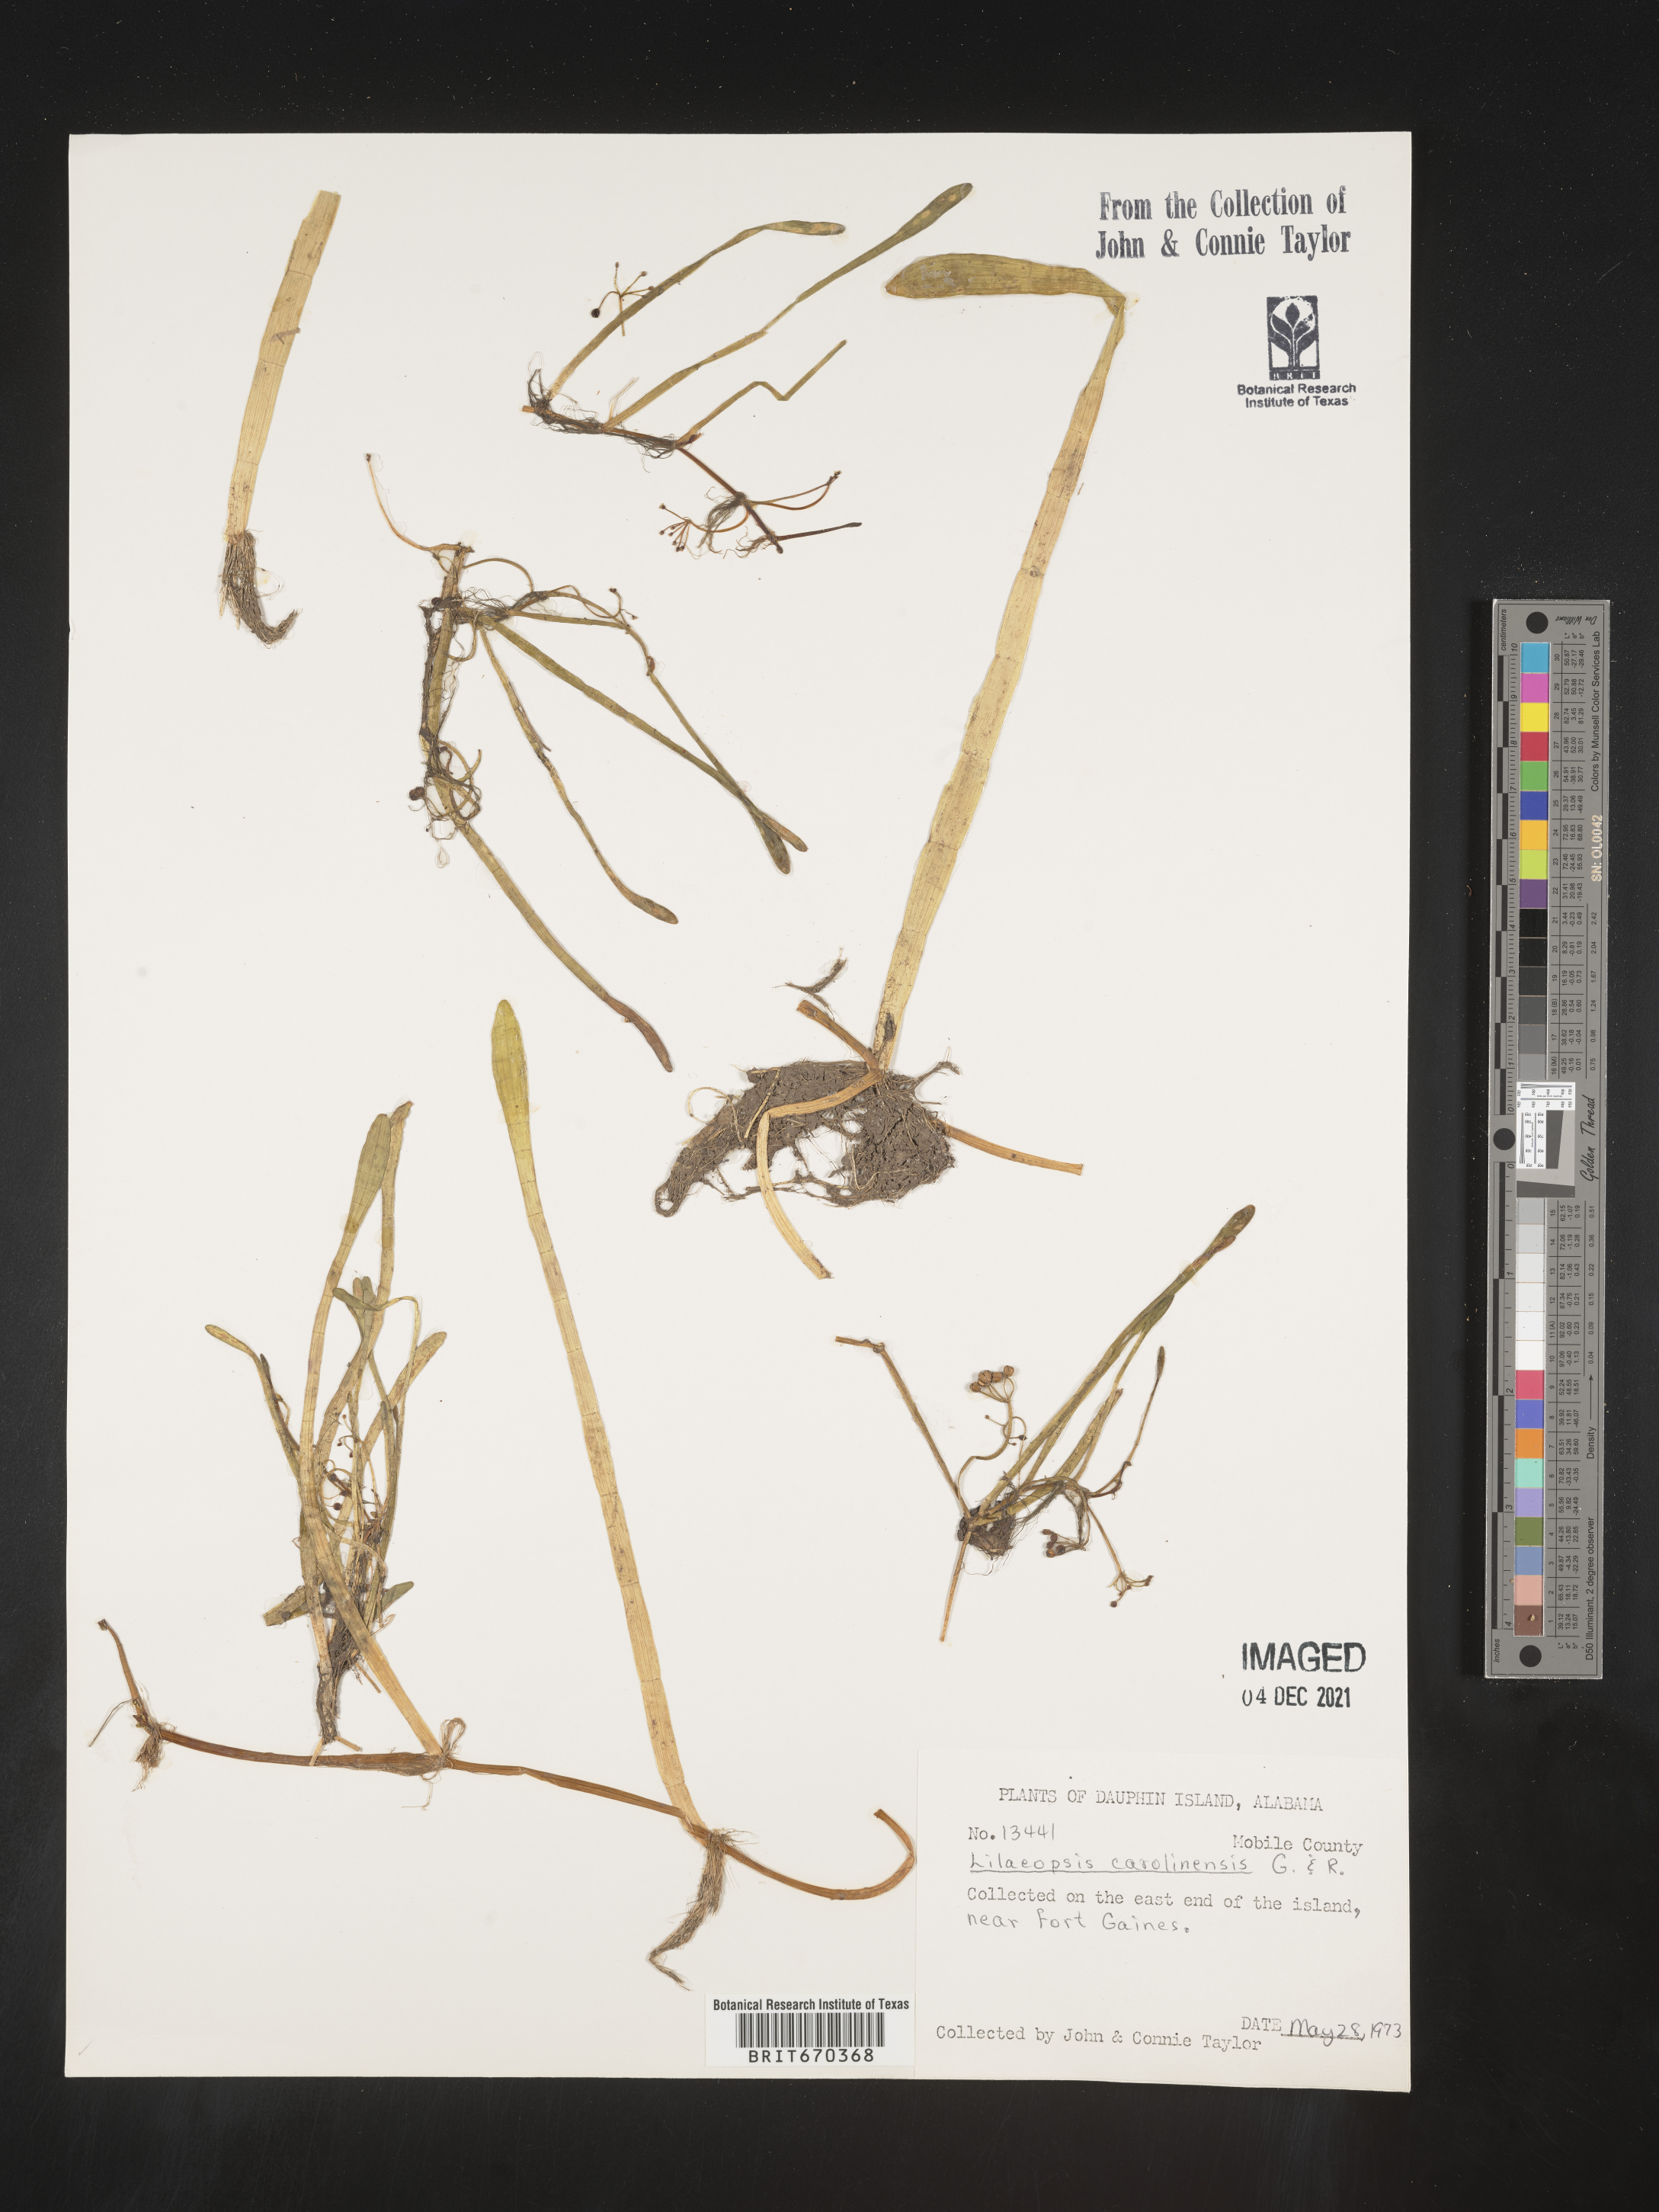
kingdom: Plantae
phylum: Tracheophyta
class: Magnoliopsida
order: Apiales
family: Apiaceae
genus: Lilaeopsis
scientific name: Lilaeopsis
